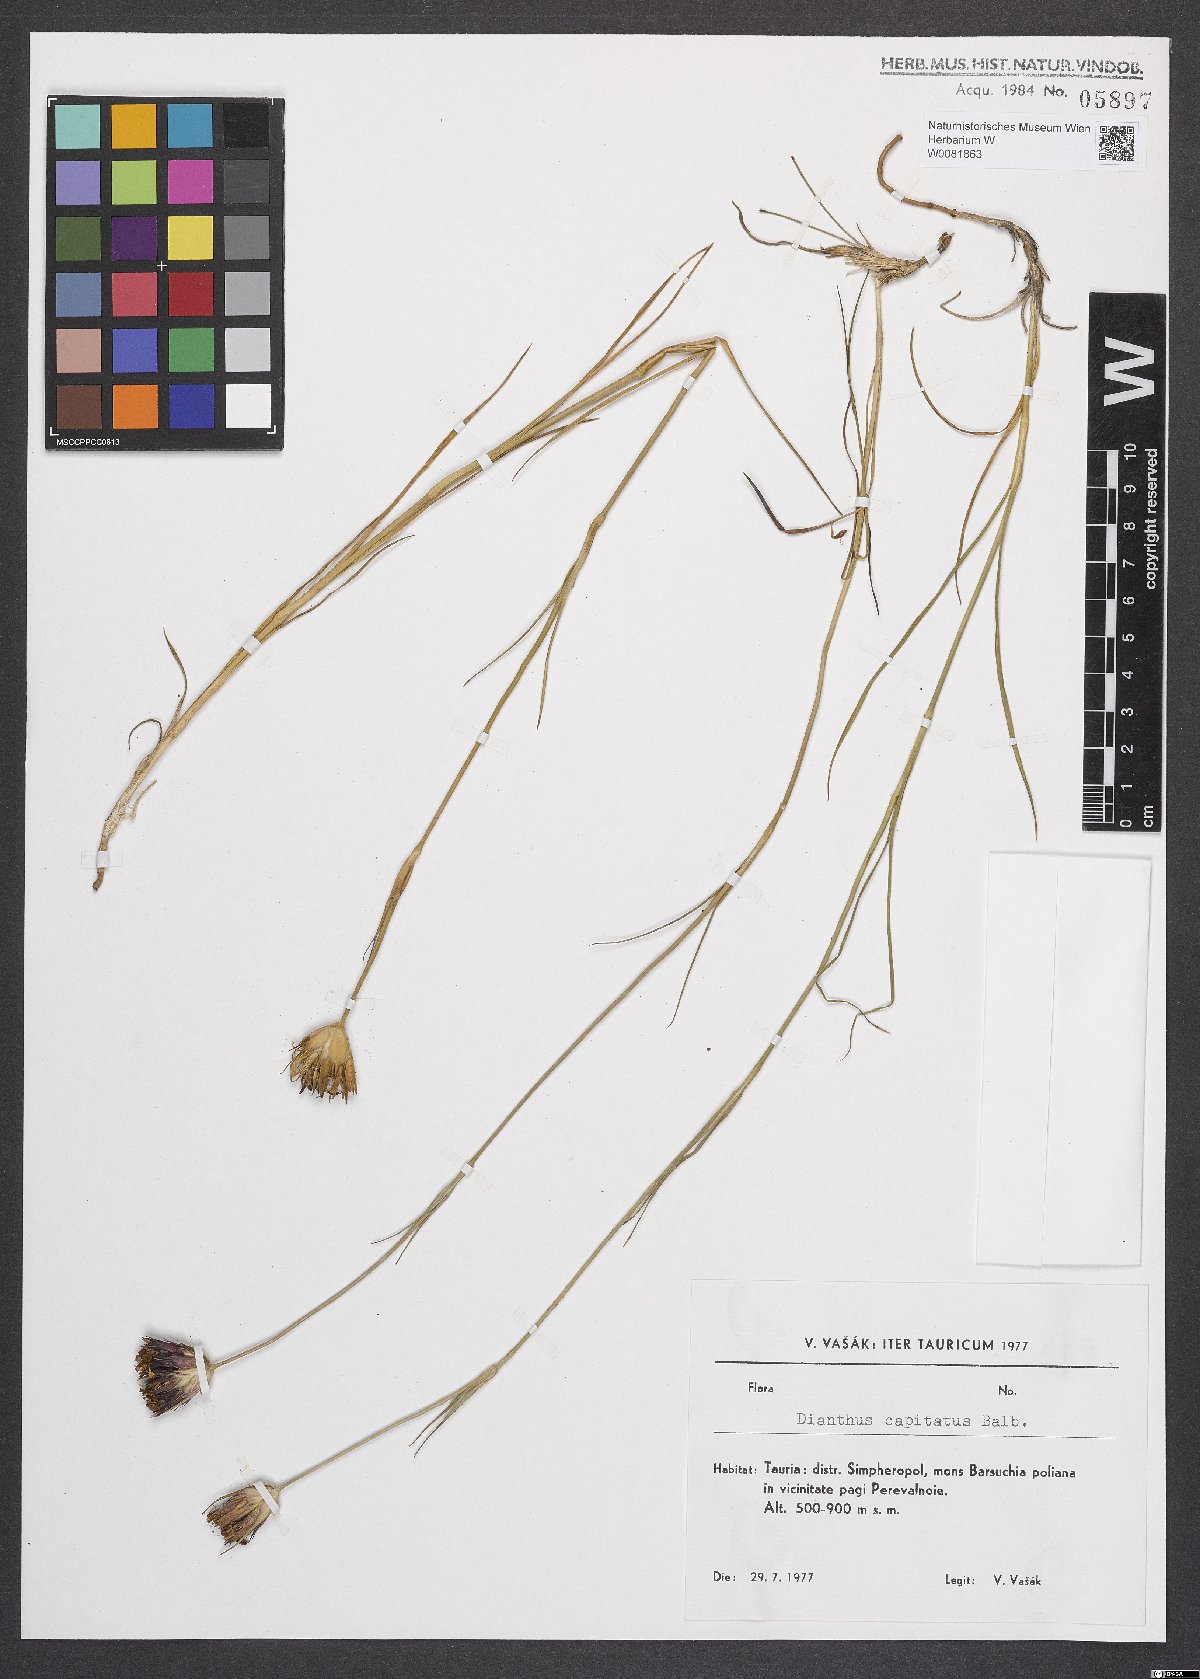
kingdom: Plantae
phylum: Tracheophyta
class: Magnoliopsida
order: Caryophyllales
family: Caryophyllaceae
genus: Dianthus
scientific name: Dianthus capitatus
